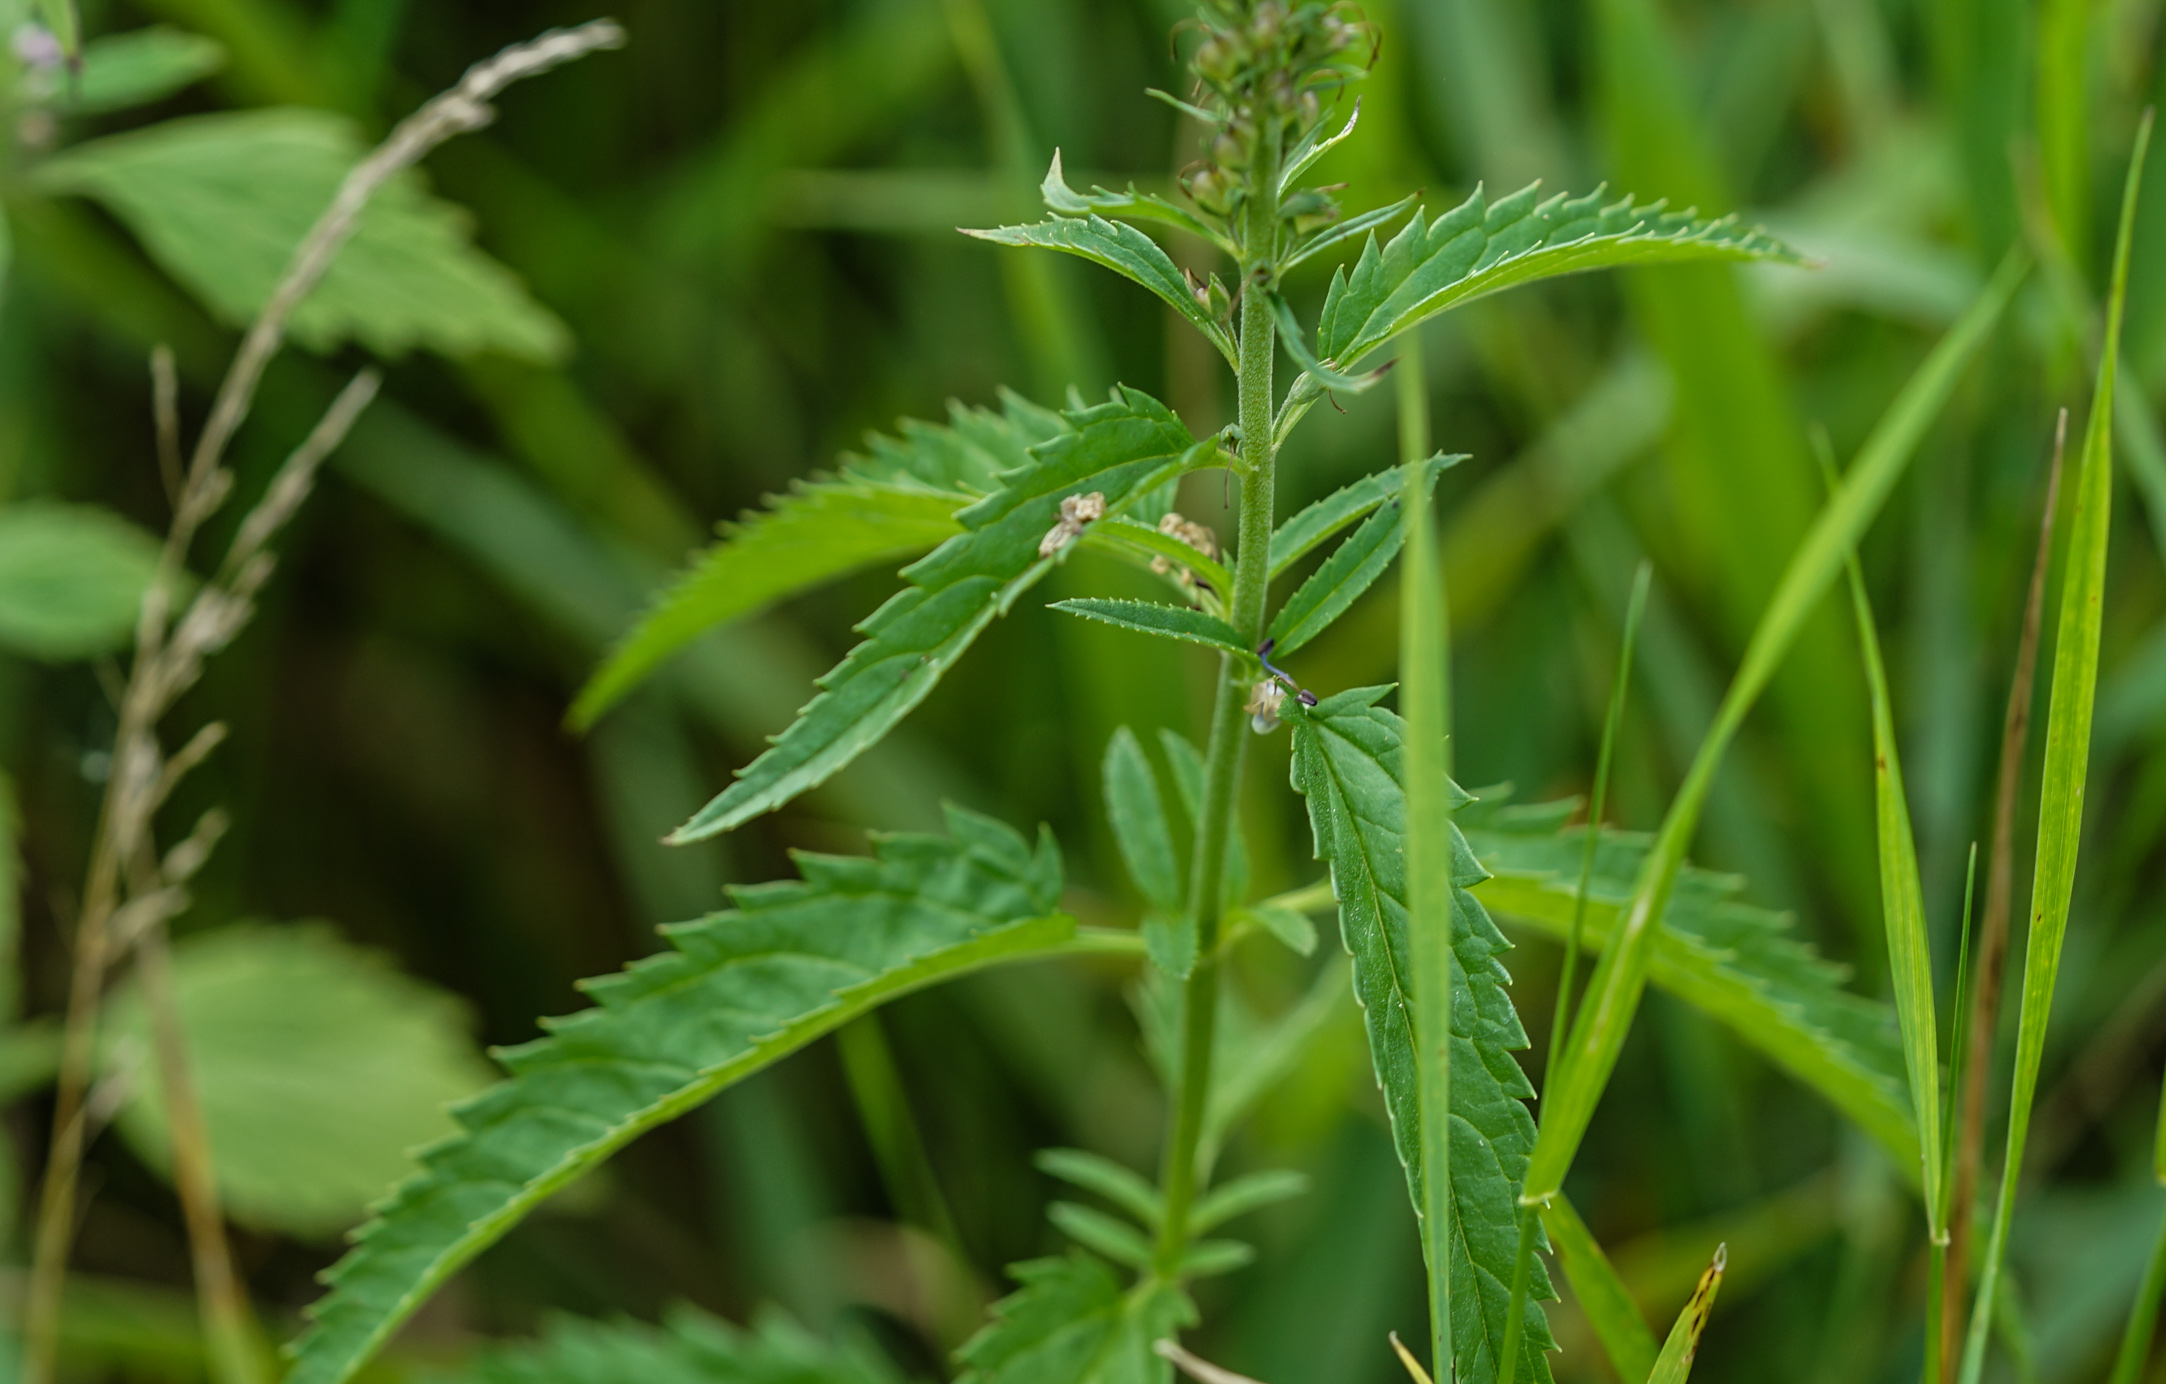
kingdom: Plantae
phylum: Tracheophyta
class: Magnoliopsida
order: Lamiales
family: Plantaginaceae
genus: Veronica
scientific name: Veronica longifolia
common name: Garden speedwell
